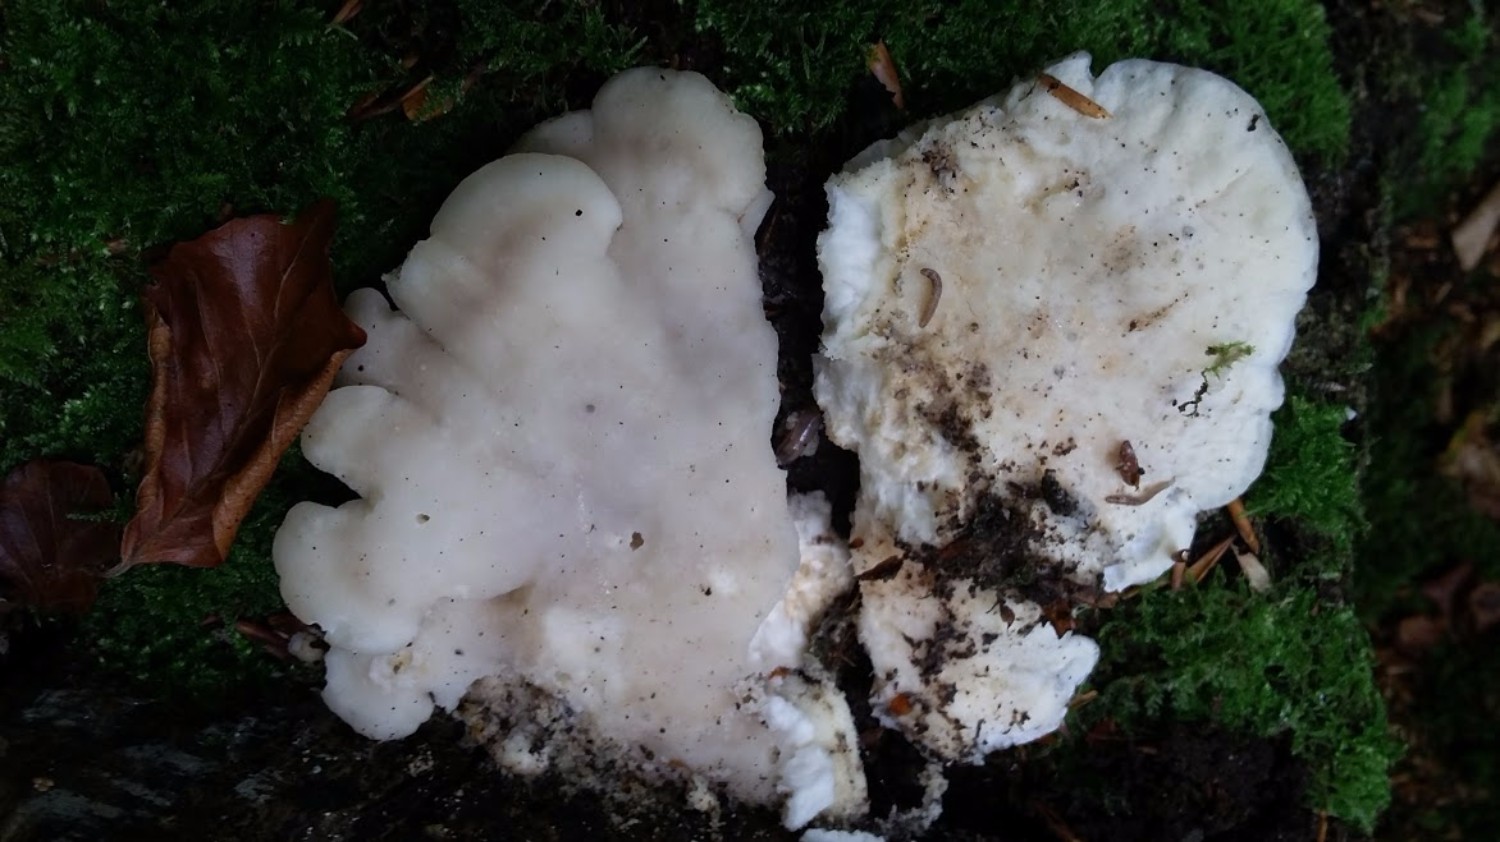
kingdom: Fungi
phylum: Basidiomycota
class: Agaricomycetes
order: Polyporales
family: Incrustoporiaceae
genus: Tyromyces
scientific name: Tyromyces chioneus
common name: stor blødporesvamp
